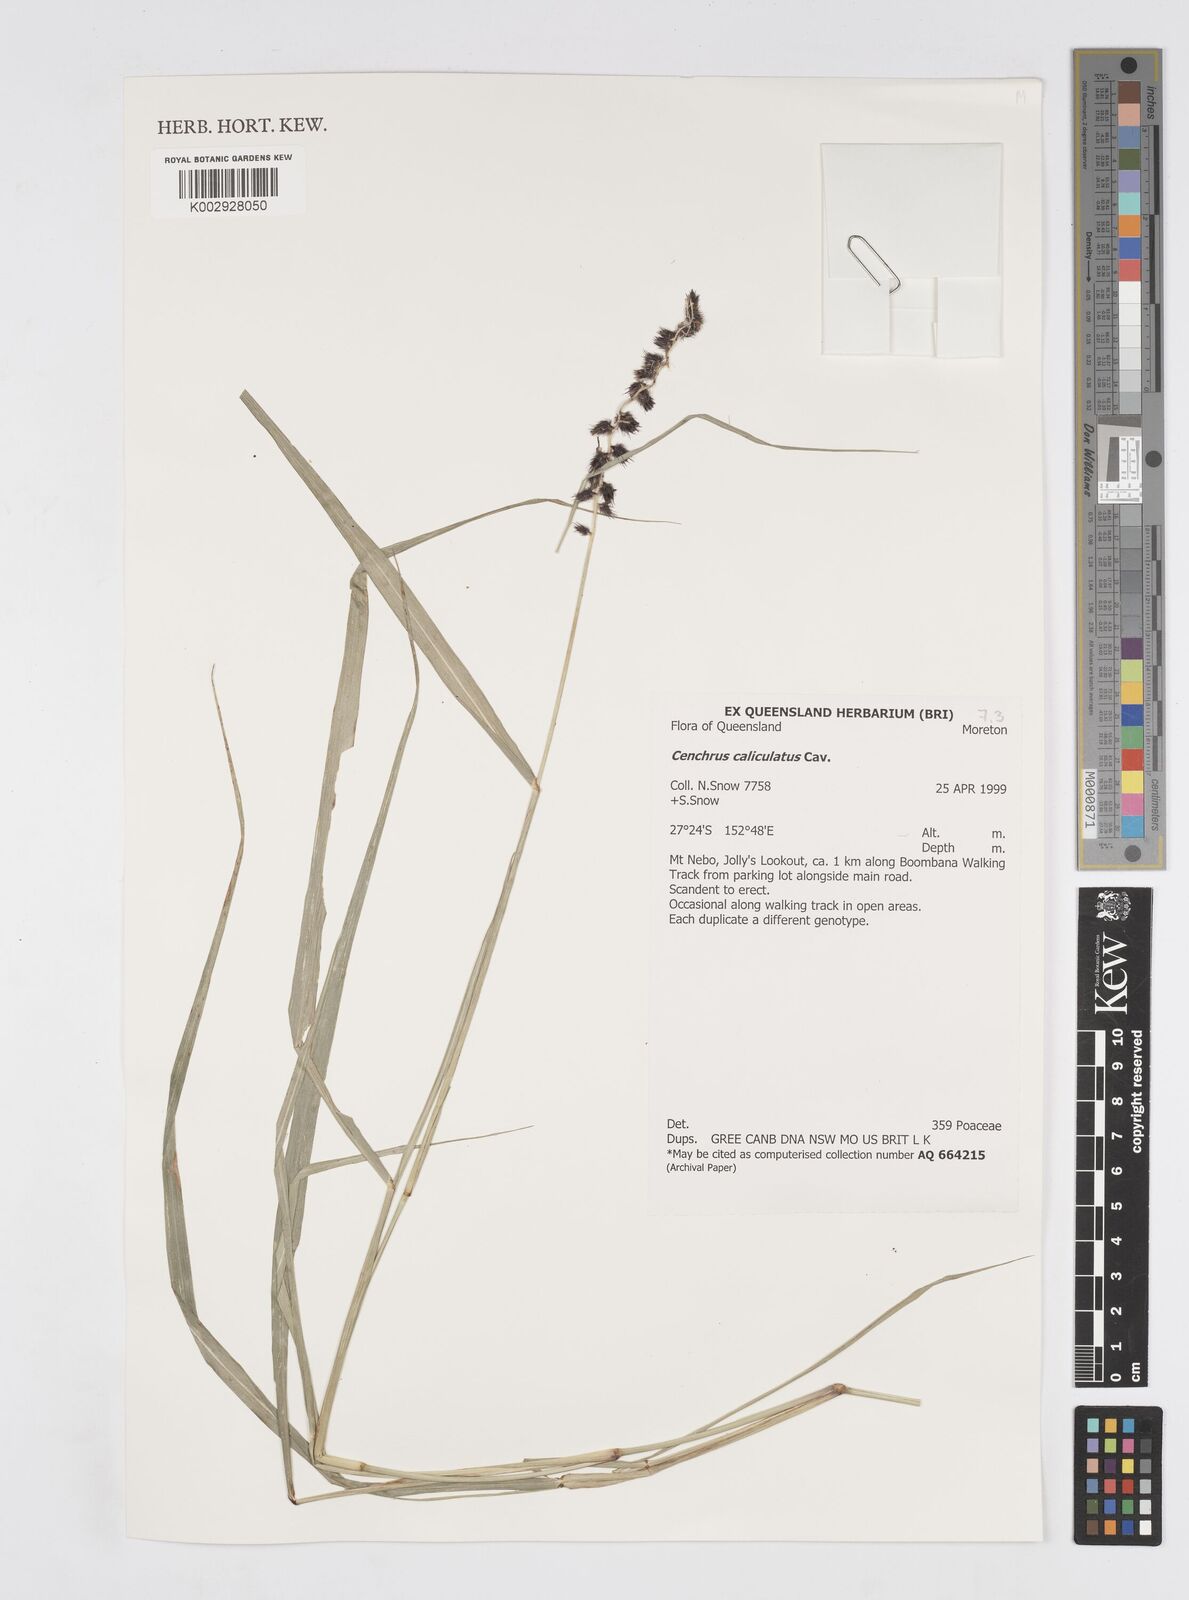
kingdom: Plantae
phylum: Tracheophyta
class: Liliopsida
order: Poales
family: Poaceae
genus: Cenchrus
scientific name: Cenchrus caliculatus
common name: Large bur grass
